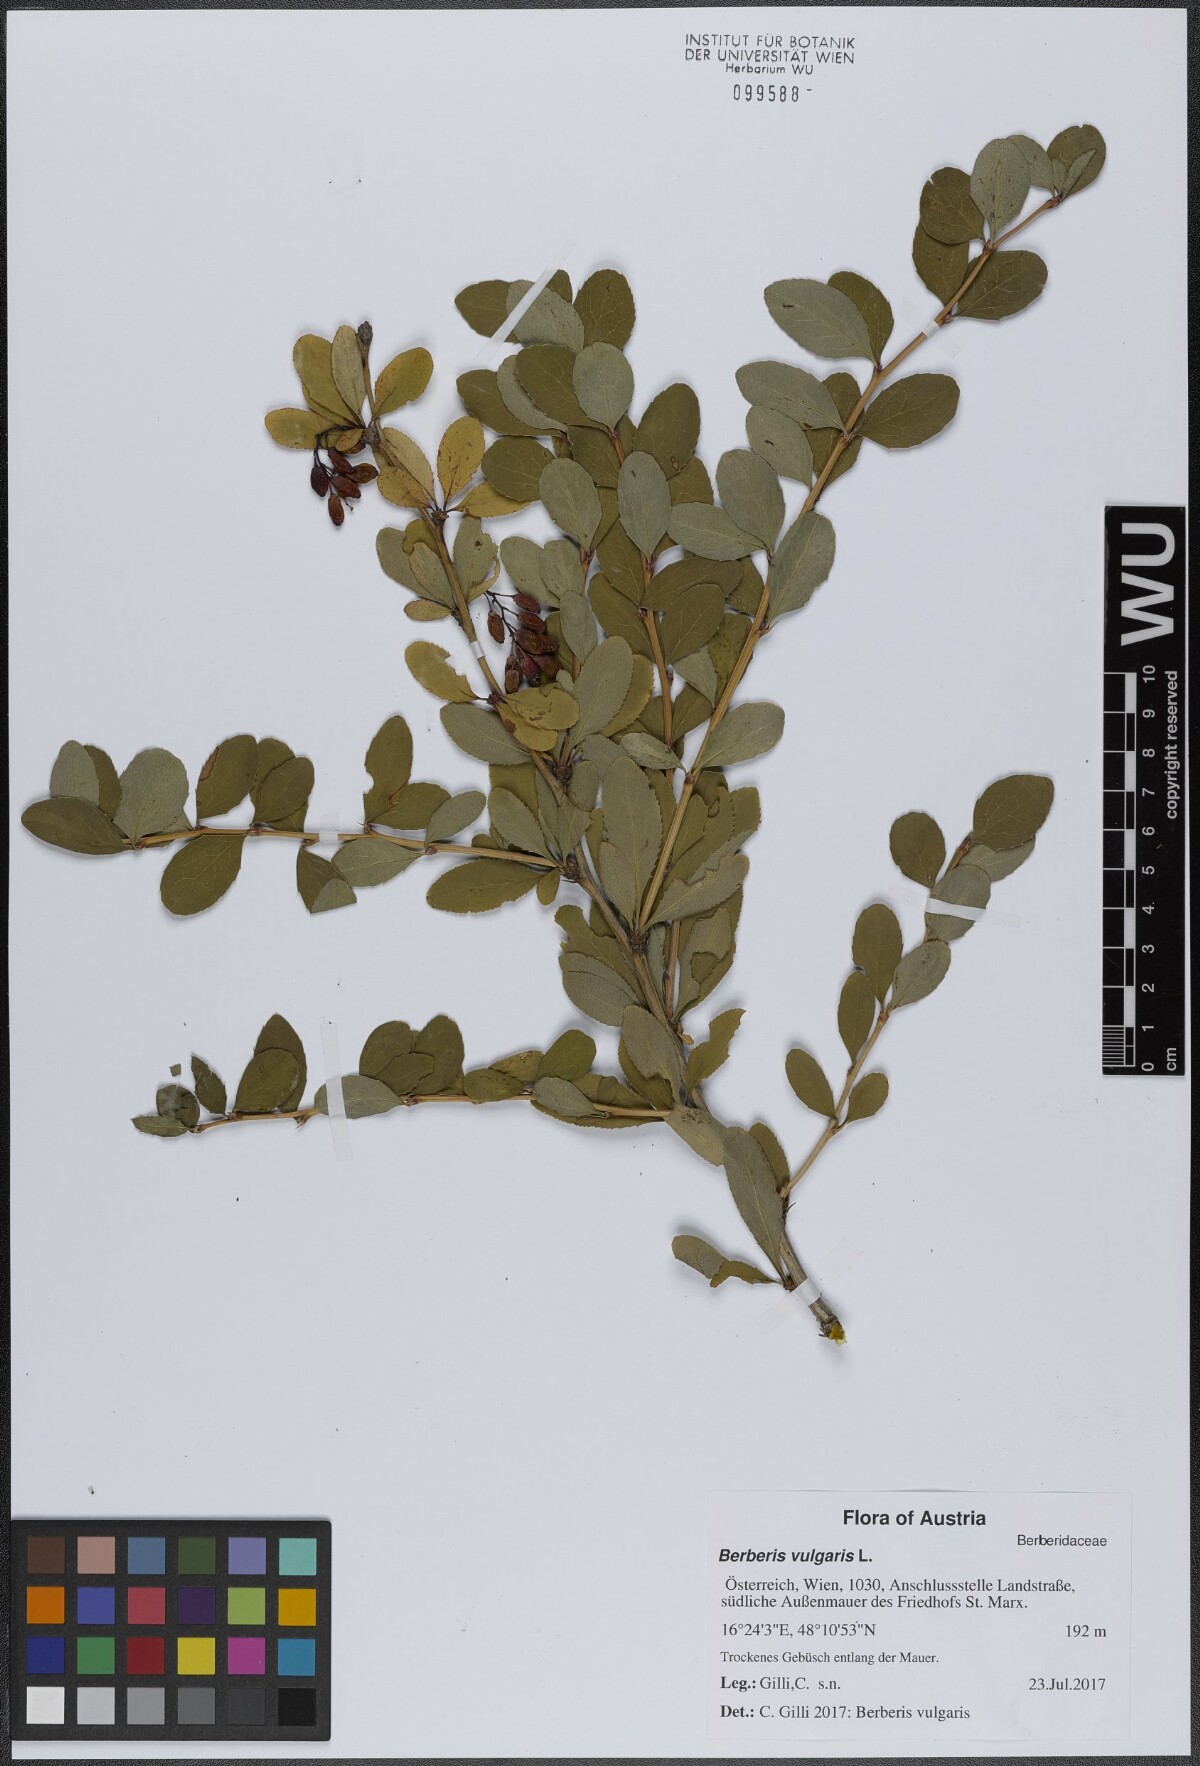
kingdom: Plantae
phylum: Tracheophyta
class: Magnoliopsida
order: Ranunculales
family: Berberidaceae
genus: Berberis
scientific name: Berberis vulgaris
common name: Barberry
